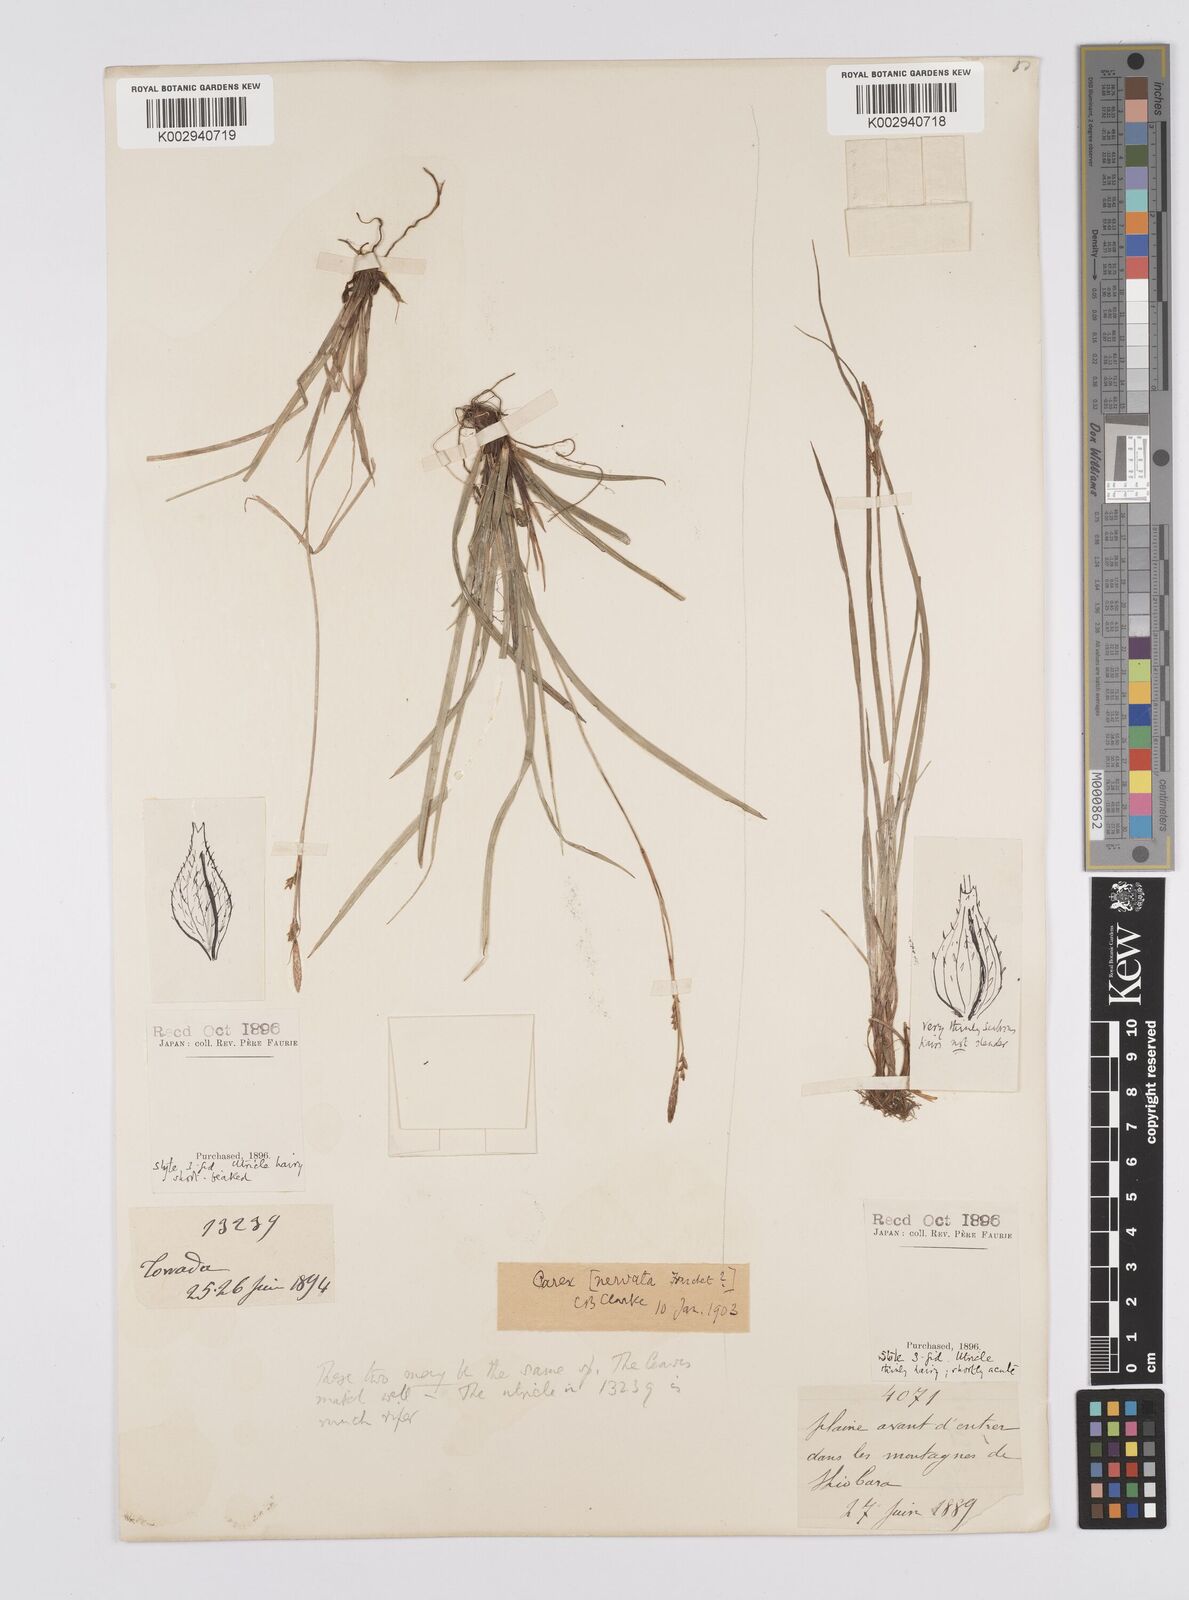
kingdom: Plantae
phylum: Tracheophyta
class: Liliopsida
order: Poales
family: Cyperaceae
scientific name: Cyperaceae
